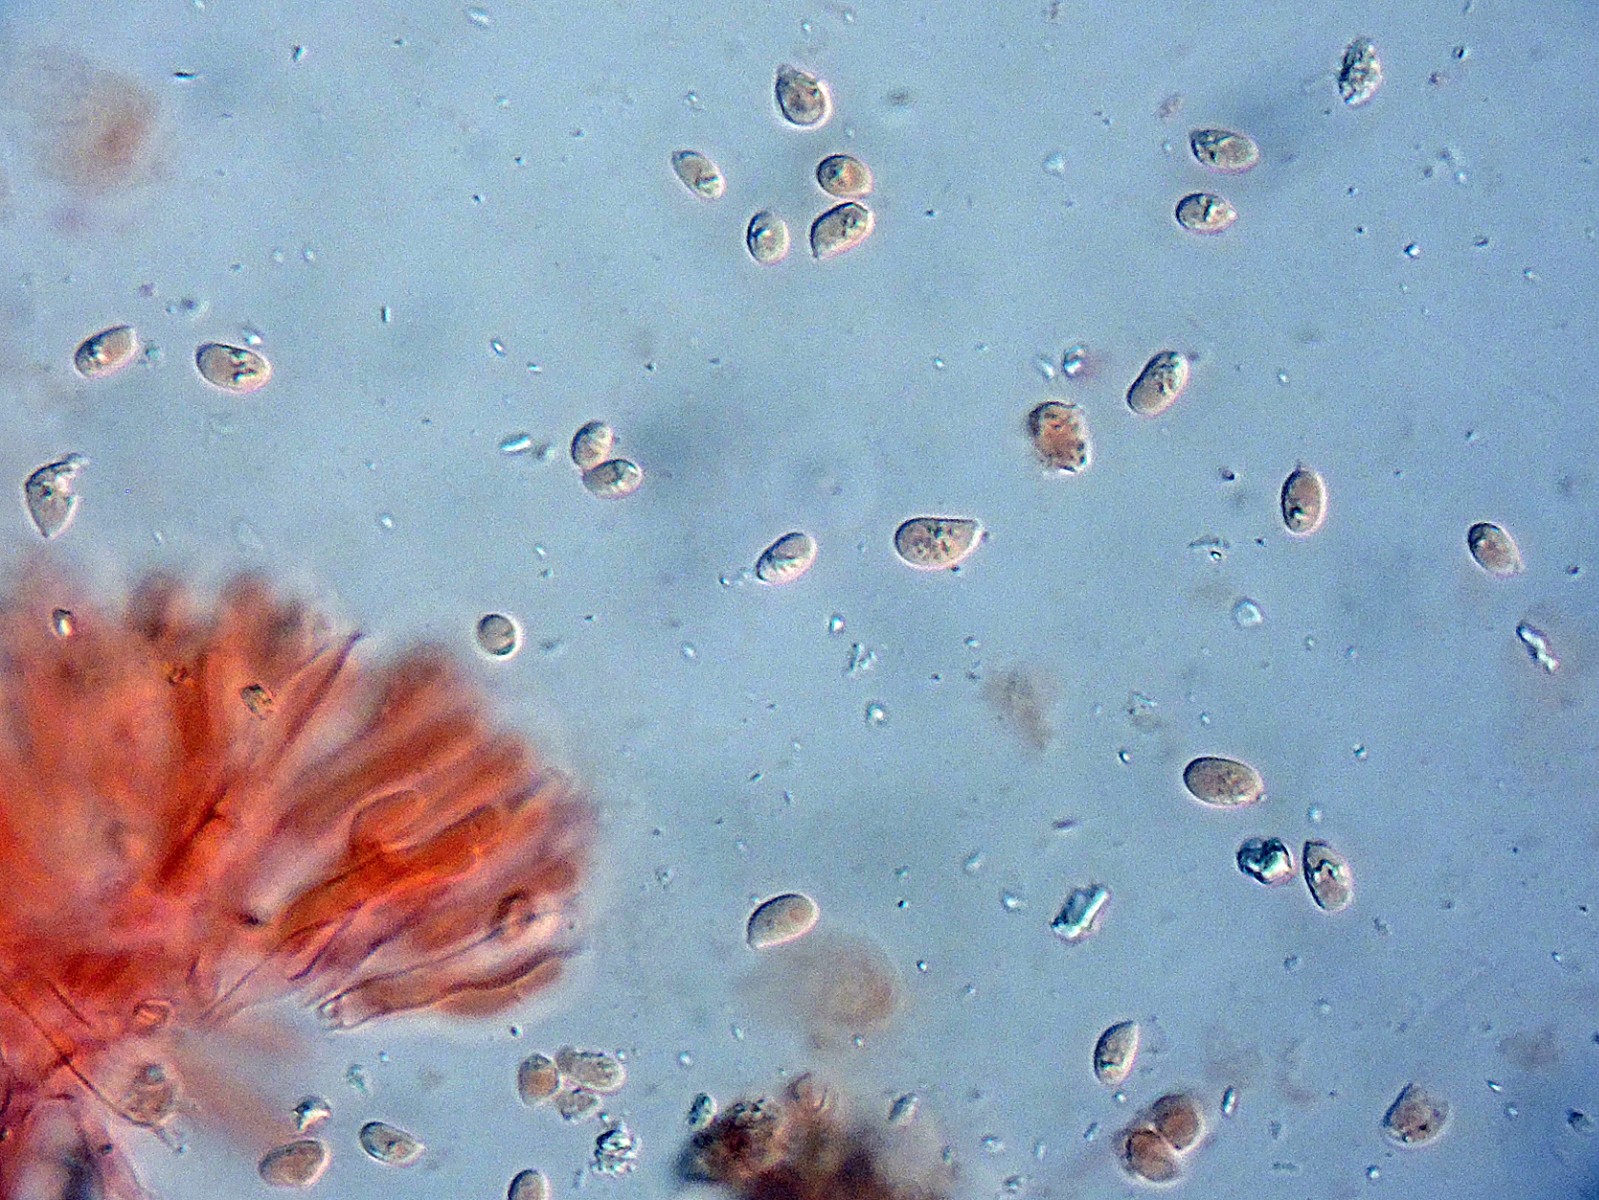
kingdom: Fungi
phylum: Basidiomycota
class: Agaricomycetes
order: Hymenochaetales
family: Rickenellaceae
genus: Contumyces
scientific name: Contumyces rosellus
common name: rosa mosnavlehat
